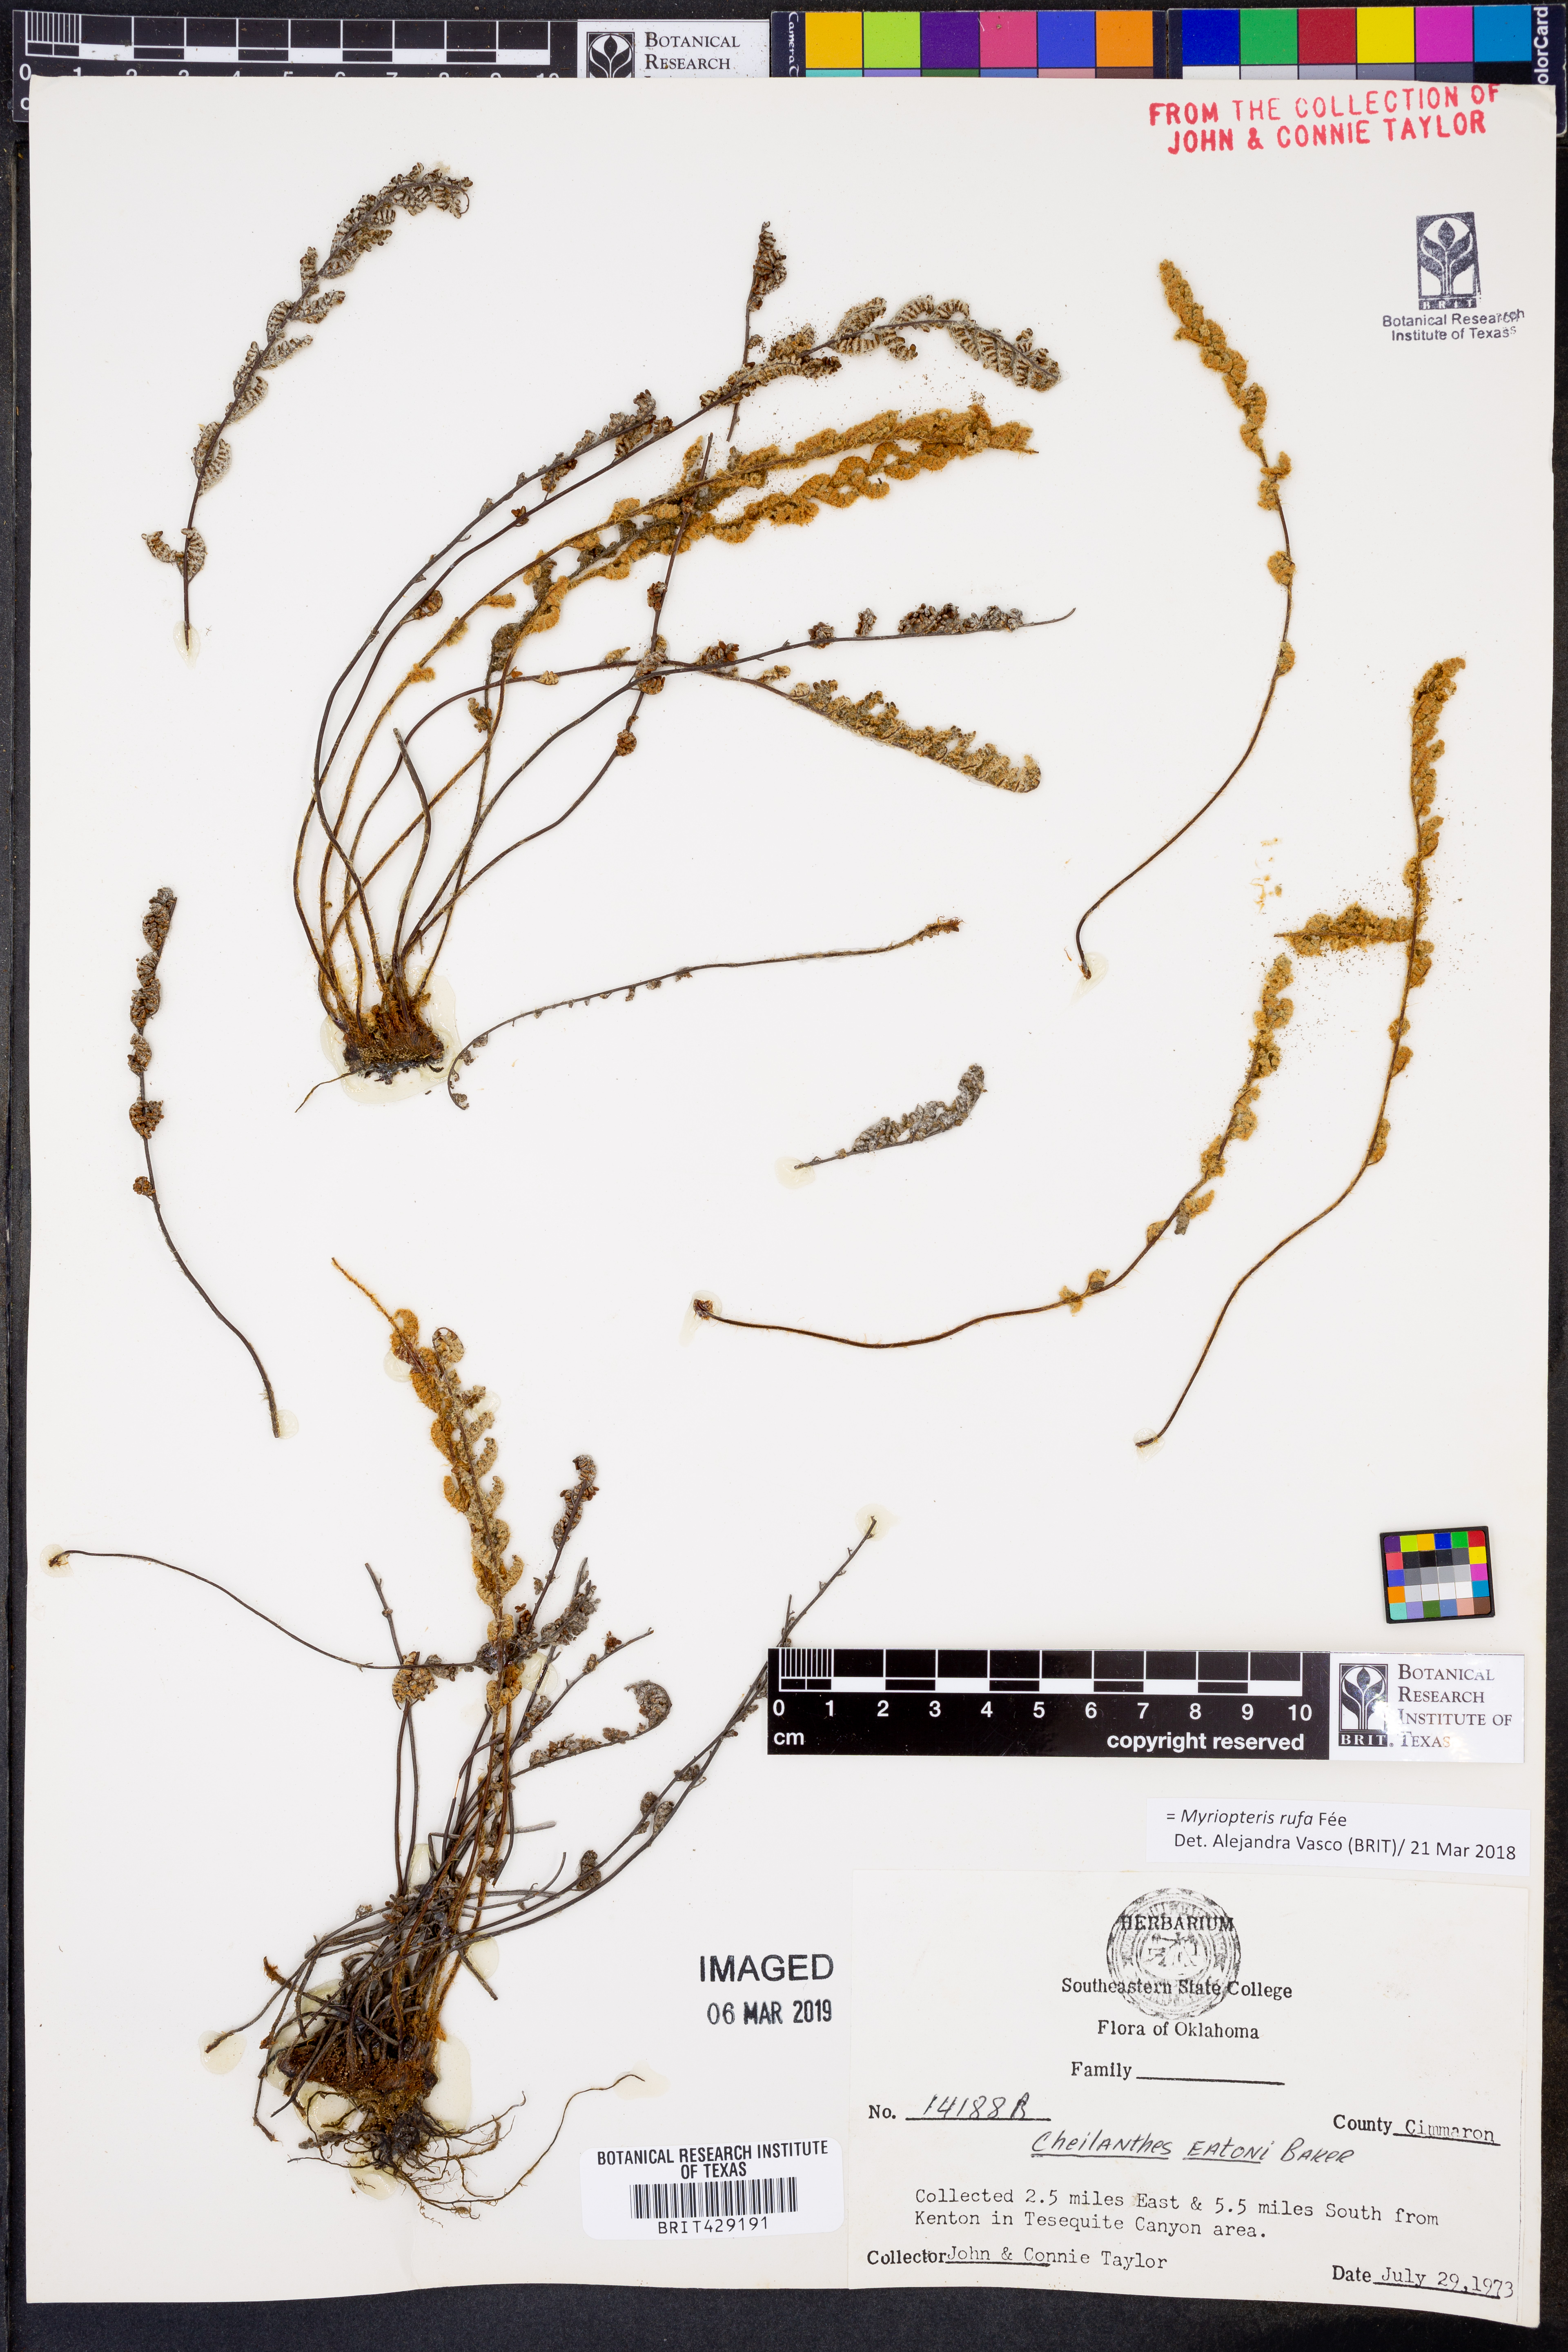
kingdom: Plantae
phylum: Tracheophyta
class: Polypodiopsida
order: Polypodiales
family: Pteridaceae
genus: Myriopteris
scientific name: Myriopteris rufa
